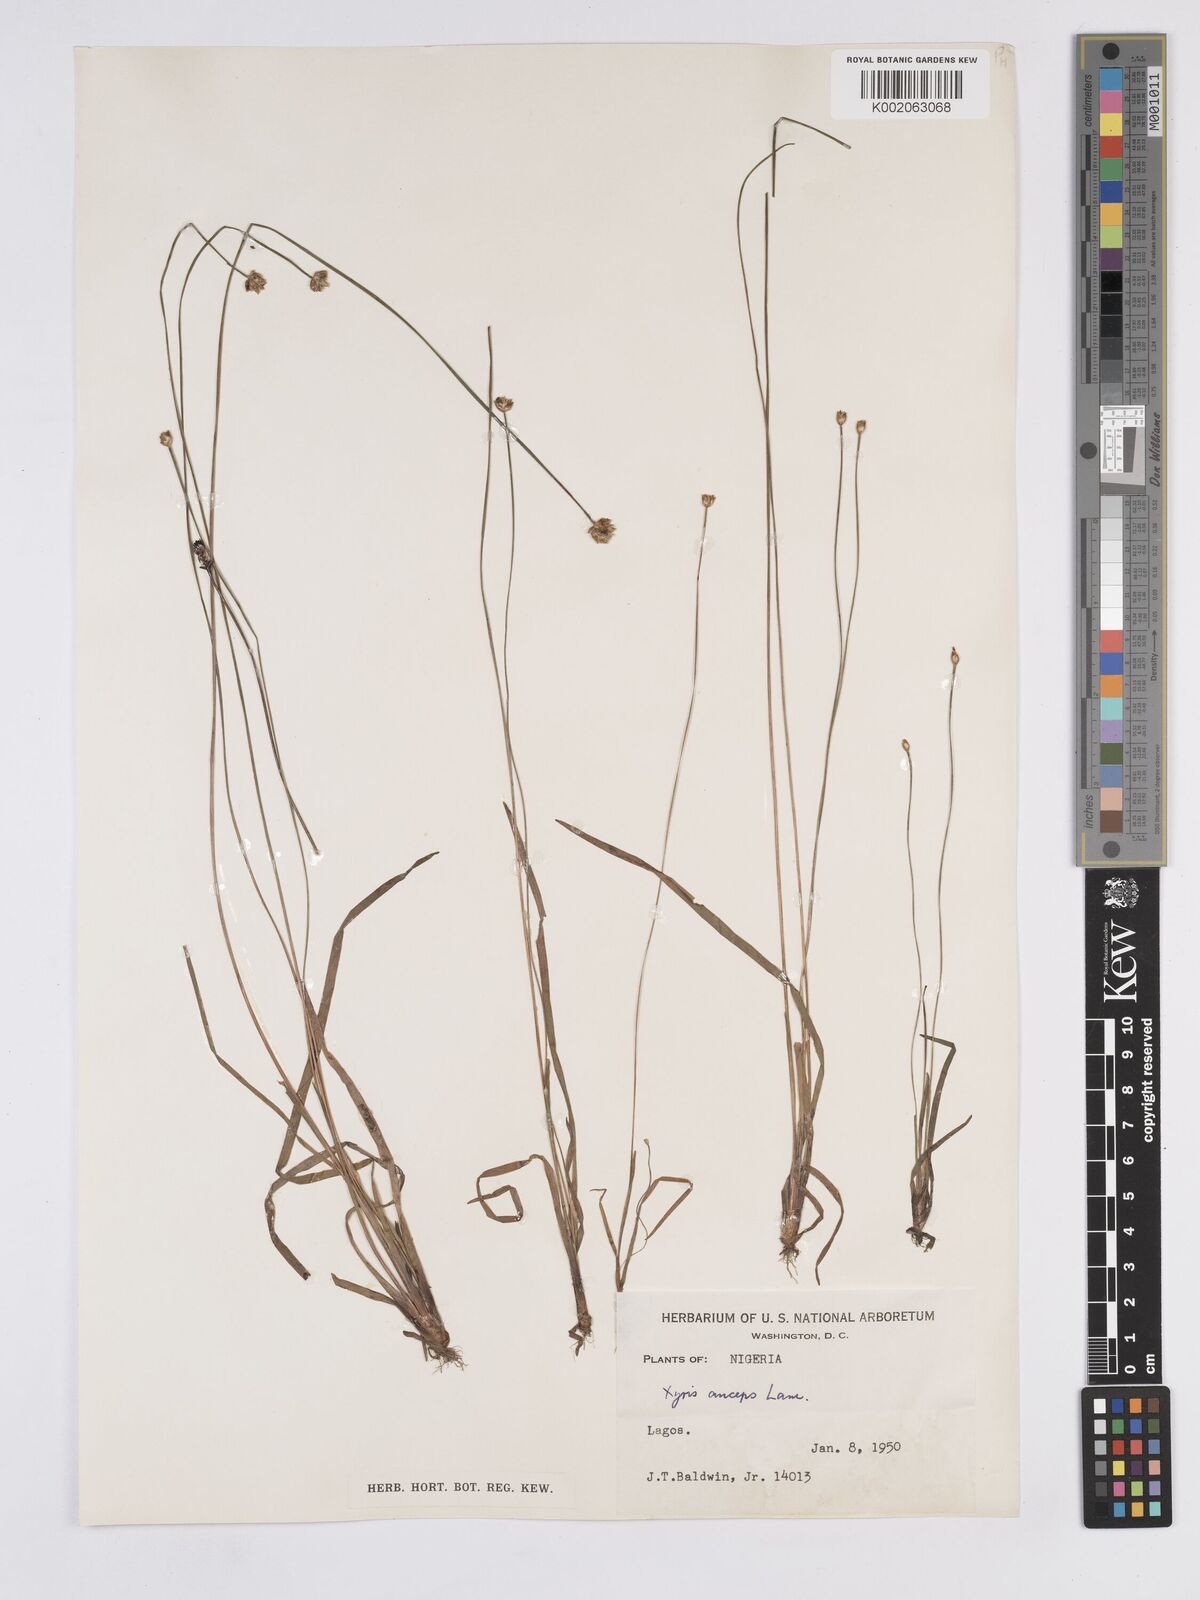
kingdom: Plantae
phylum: Tracheophyta
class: Liliopsida
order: Poales
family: Xyridaceae
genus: Xyris
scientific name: Xyris anceps
